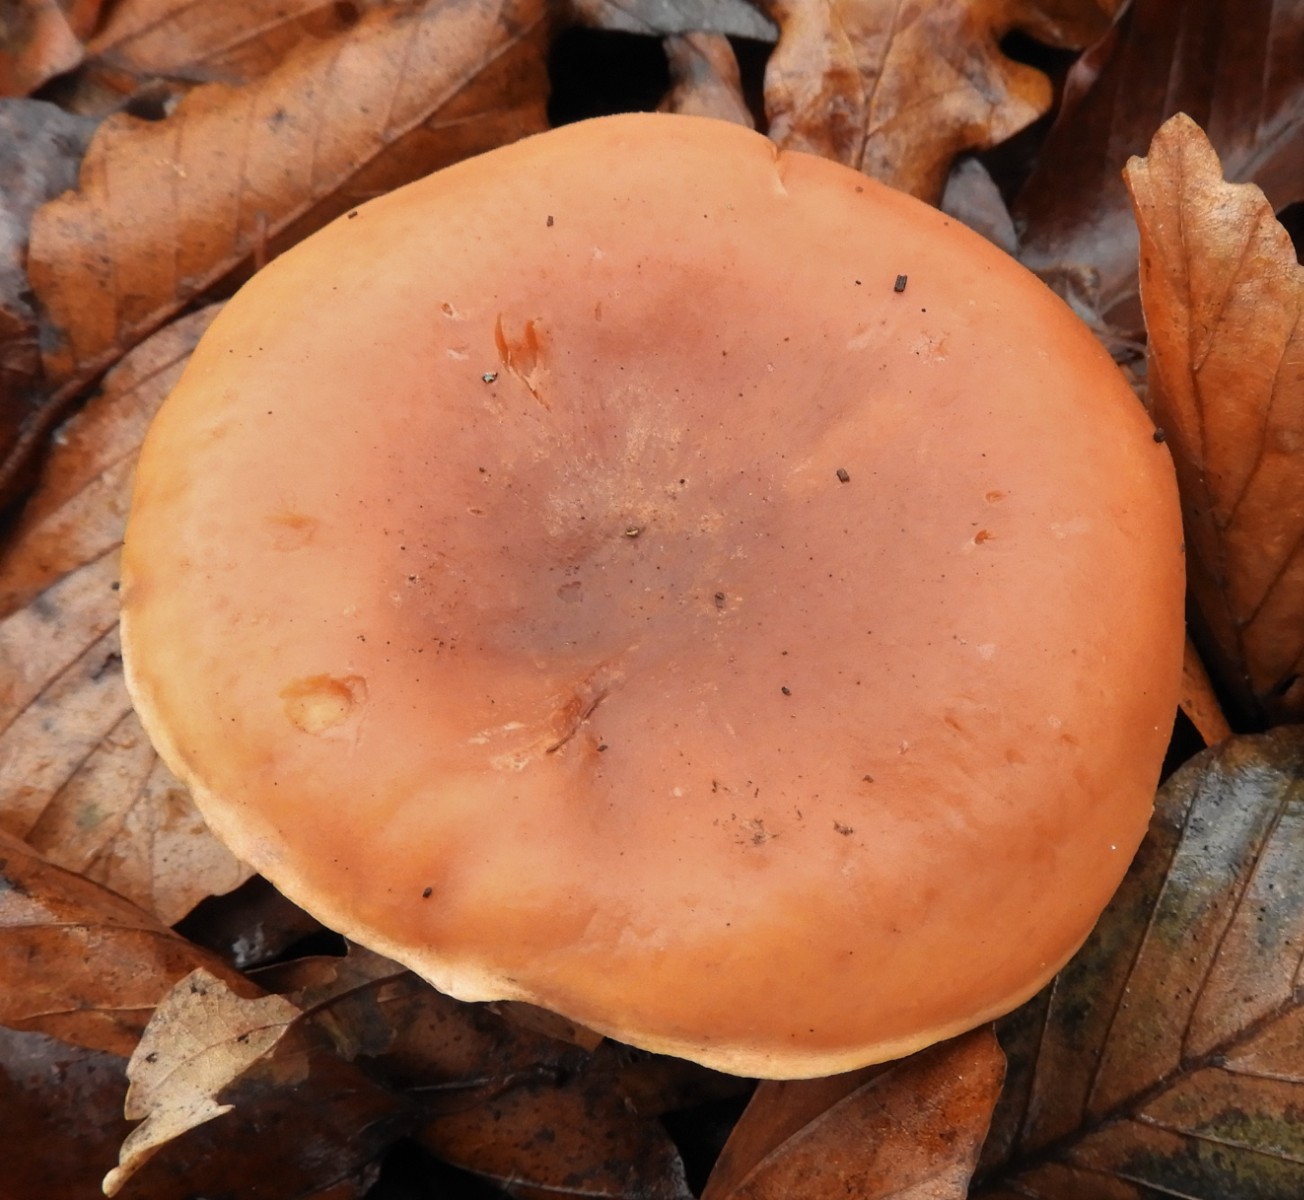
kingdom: Fungi
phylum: Basidiomycota
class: Agaricomycetes
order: Agaricales
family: Tricholomataceae
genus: Paralepista
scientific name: Paralepista flaccida
